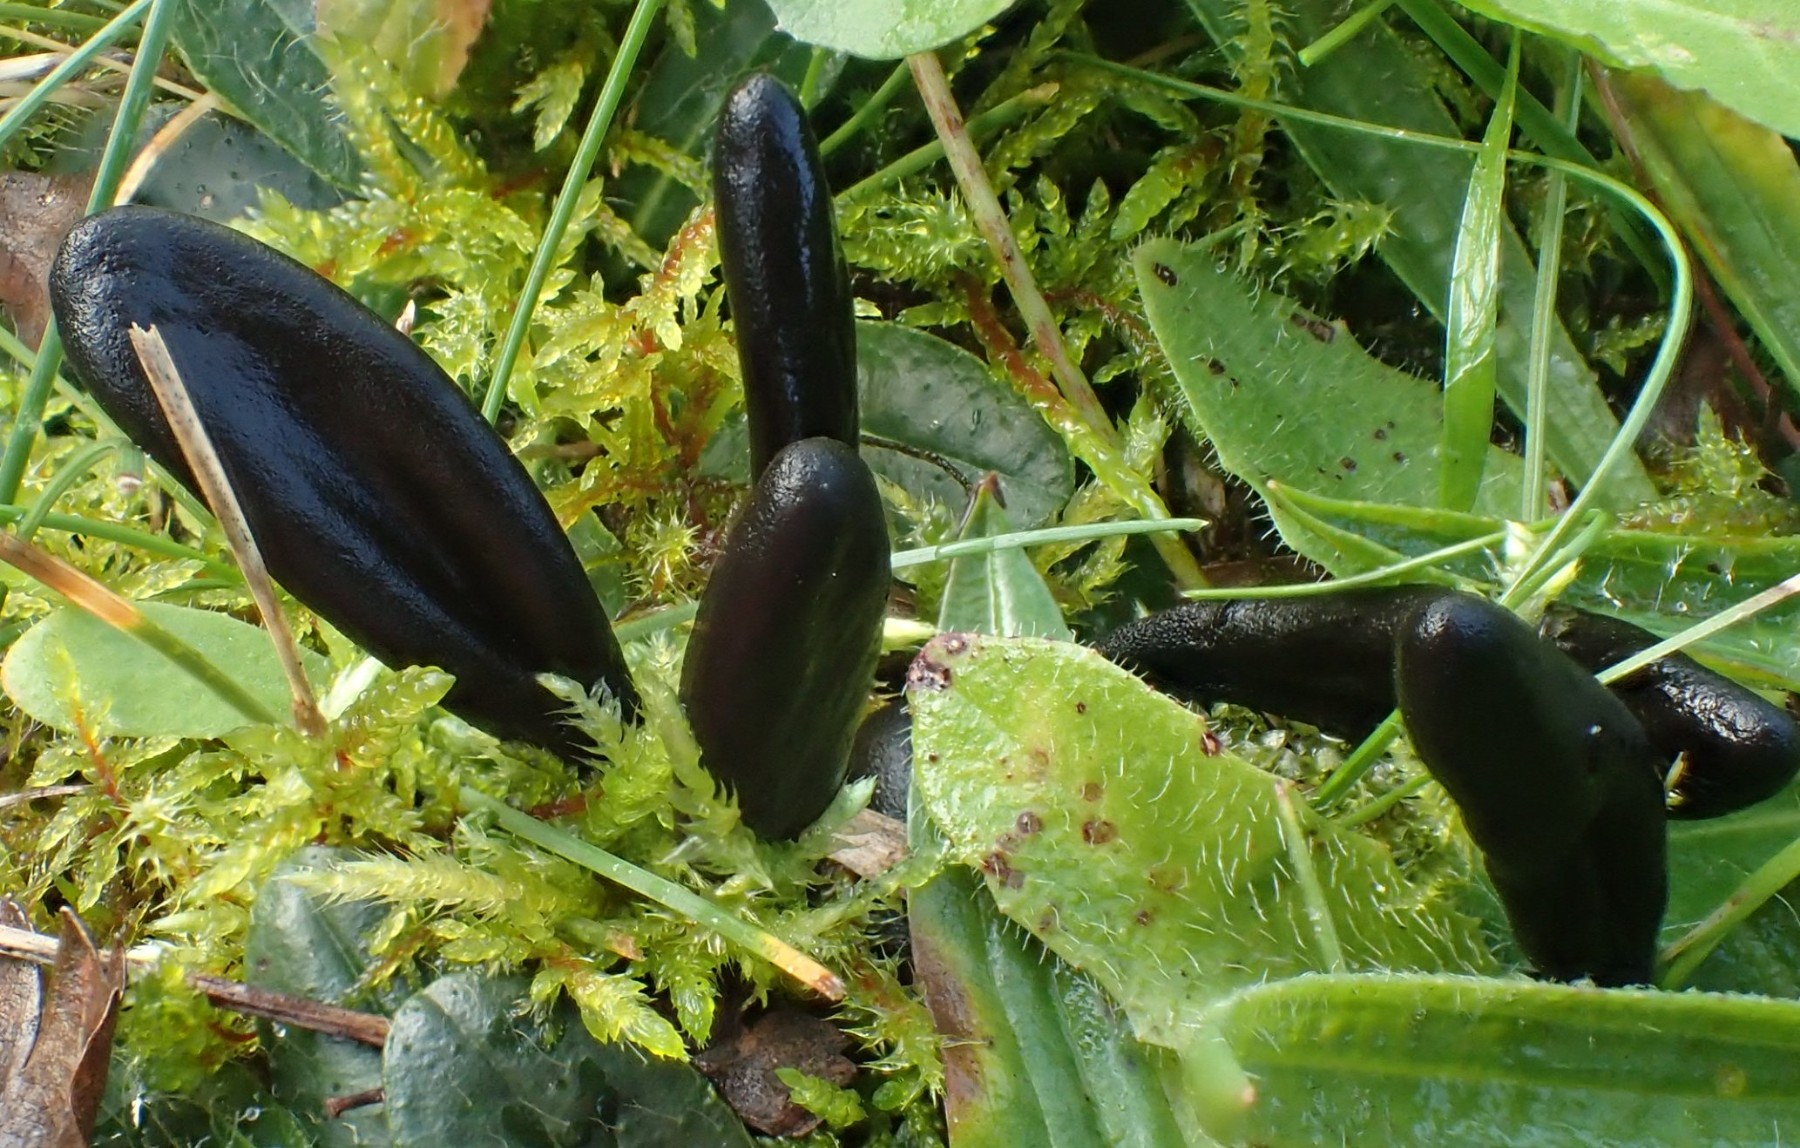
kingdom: Fungi
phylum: Ascomycota
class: Geoglossomycetes
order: Geoglossales
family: Geoglossaceae
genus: Geoglossum
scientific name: Geoglossum fallax
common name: småskællet jordtunge
